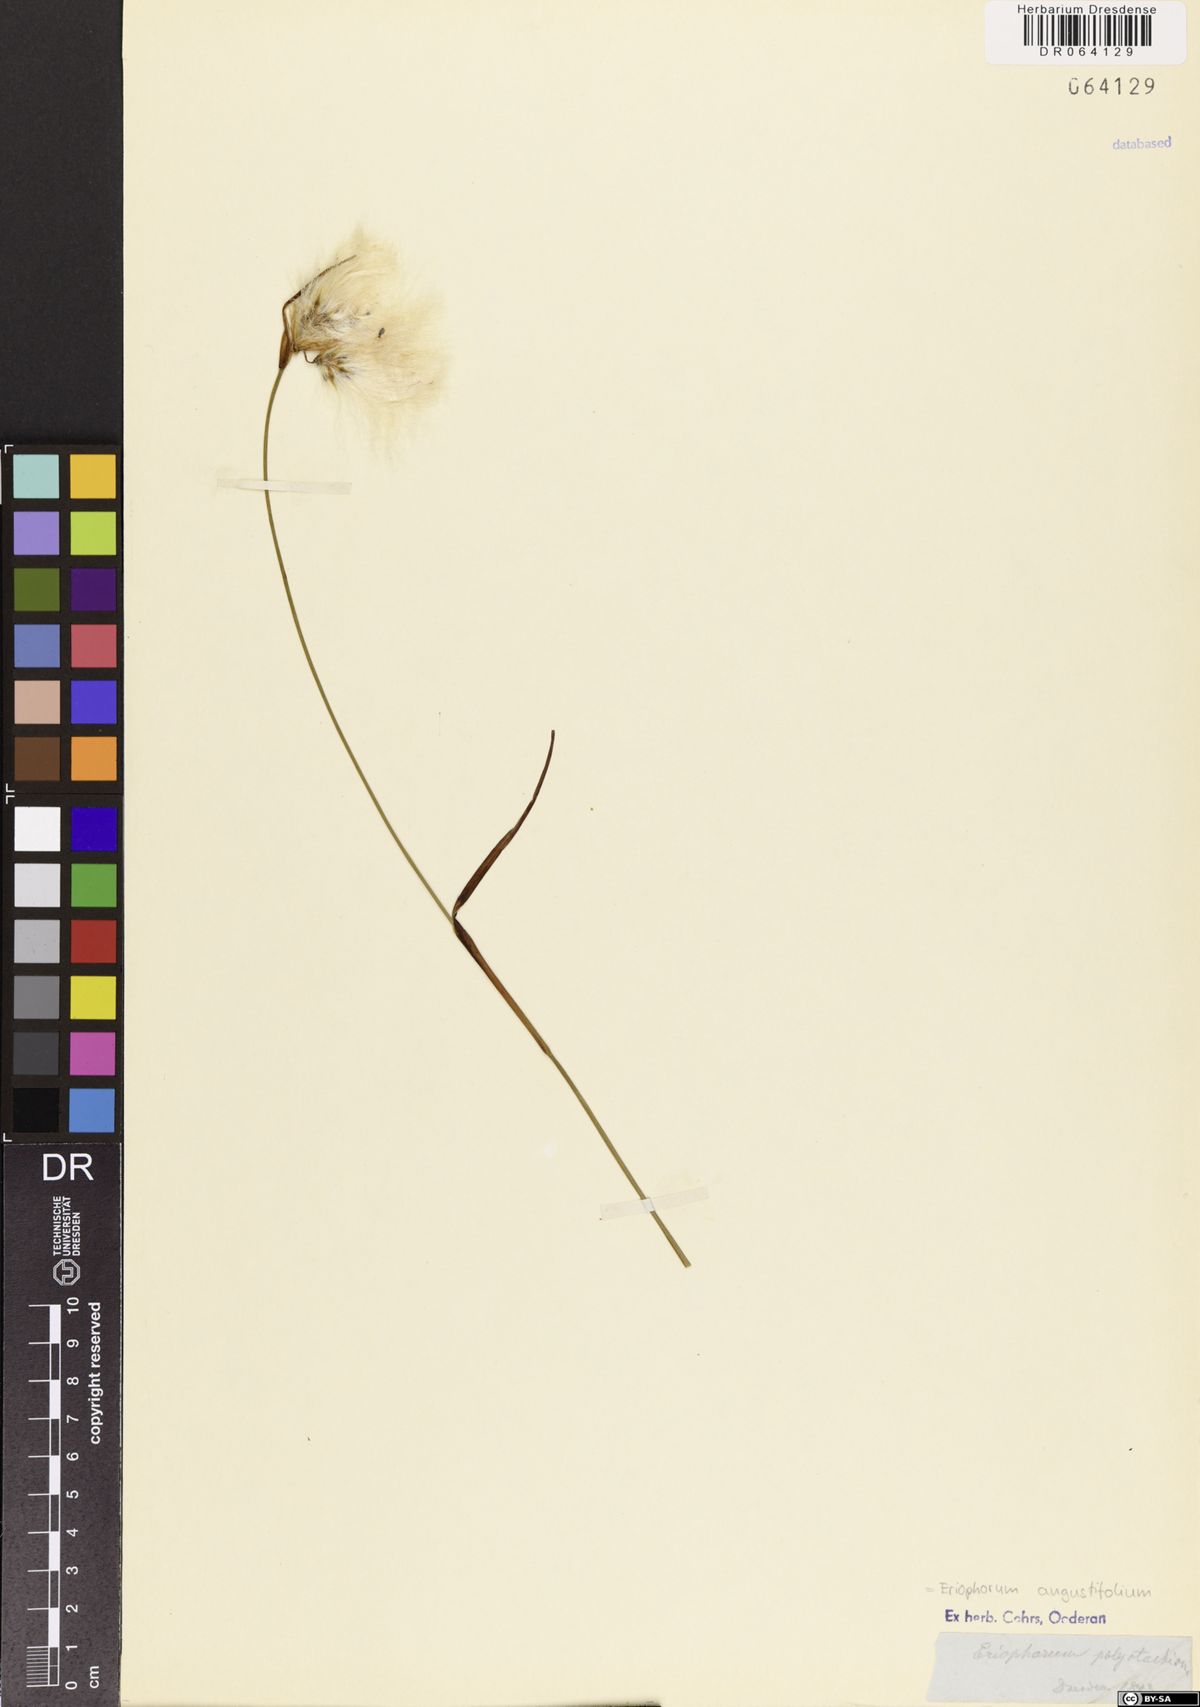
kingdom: Plantae
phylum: Tracheophyta
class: Liliopsida
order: Poales
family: Cyperaceae
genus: Eriophorum
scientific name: Eriophorum angustifolium
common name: Common cottongrass
